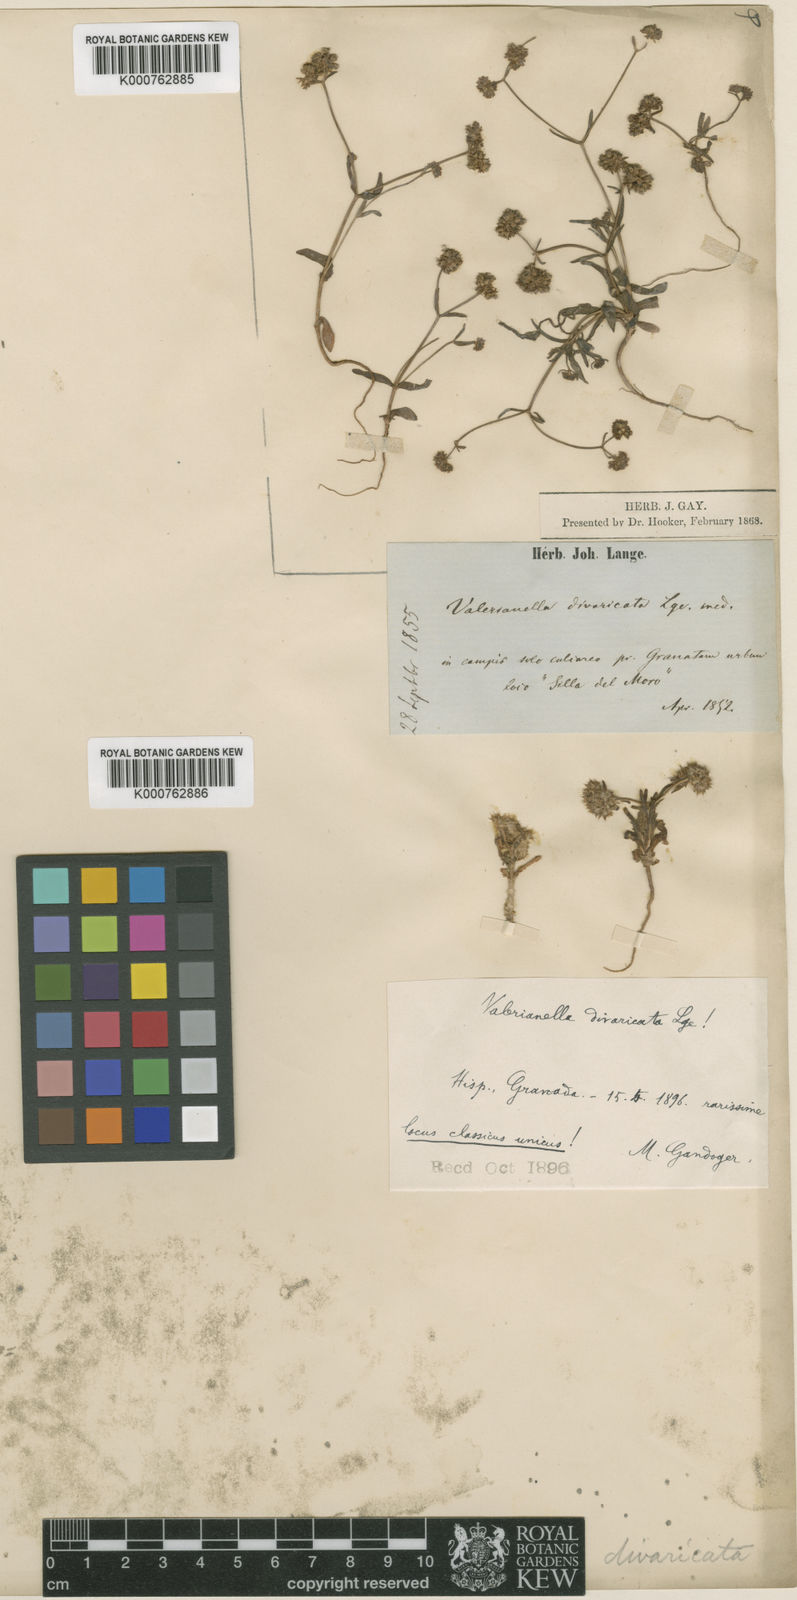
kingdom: Plantae
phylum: Tracheophyta
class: Magnoliopsida
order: Dipsacales
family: Caprifoliaceae
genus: Valerianella
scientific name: Valerianella coronata
